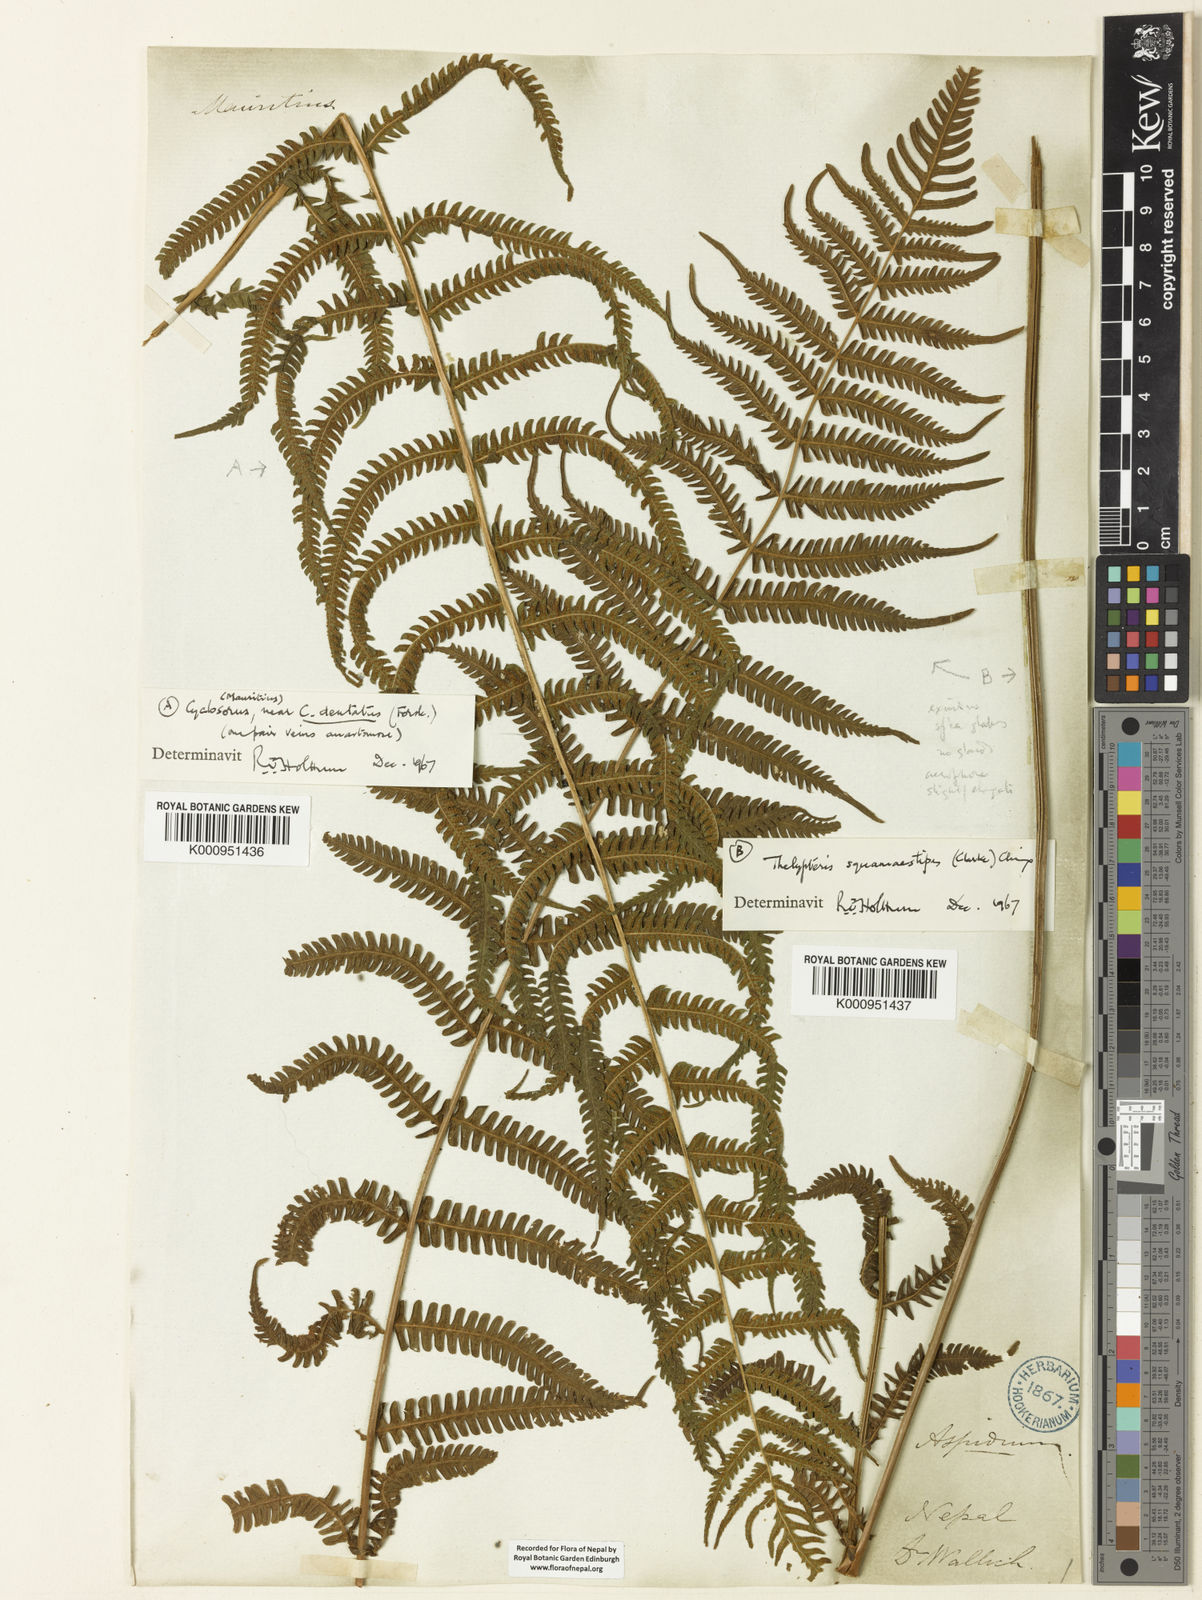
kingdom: Plantae
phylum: Tracheophyta
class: Polypodiopsida
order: Polypodiales
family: Thelypteridaceae
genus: Cyclogramma
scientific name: Cyclogramma
